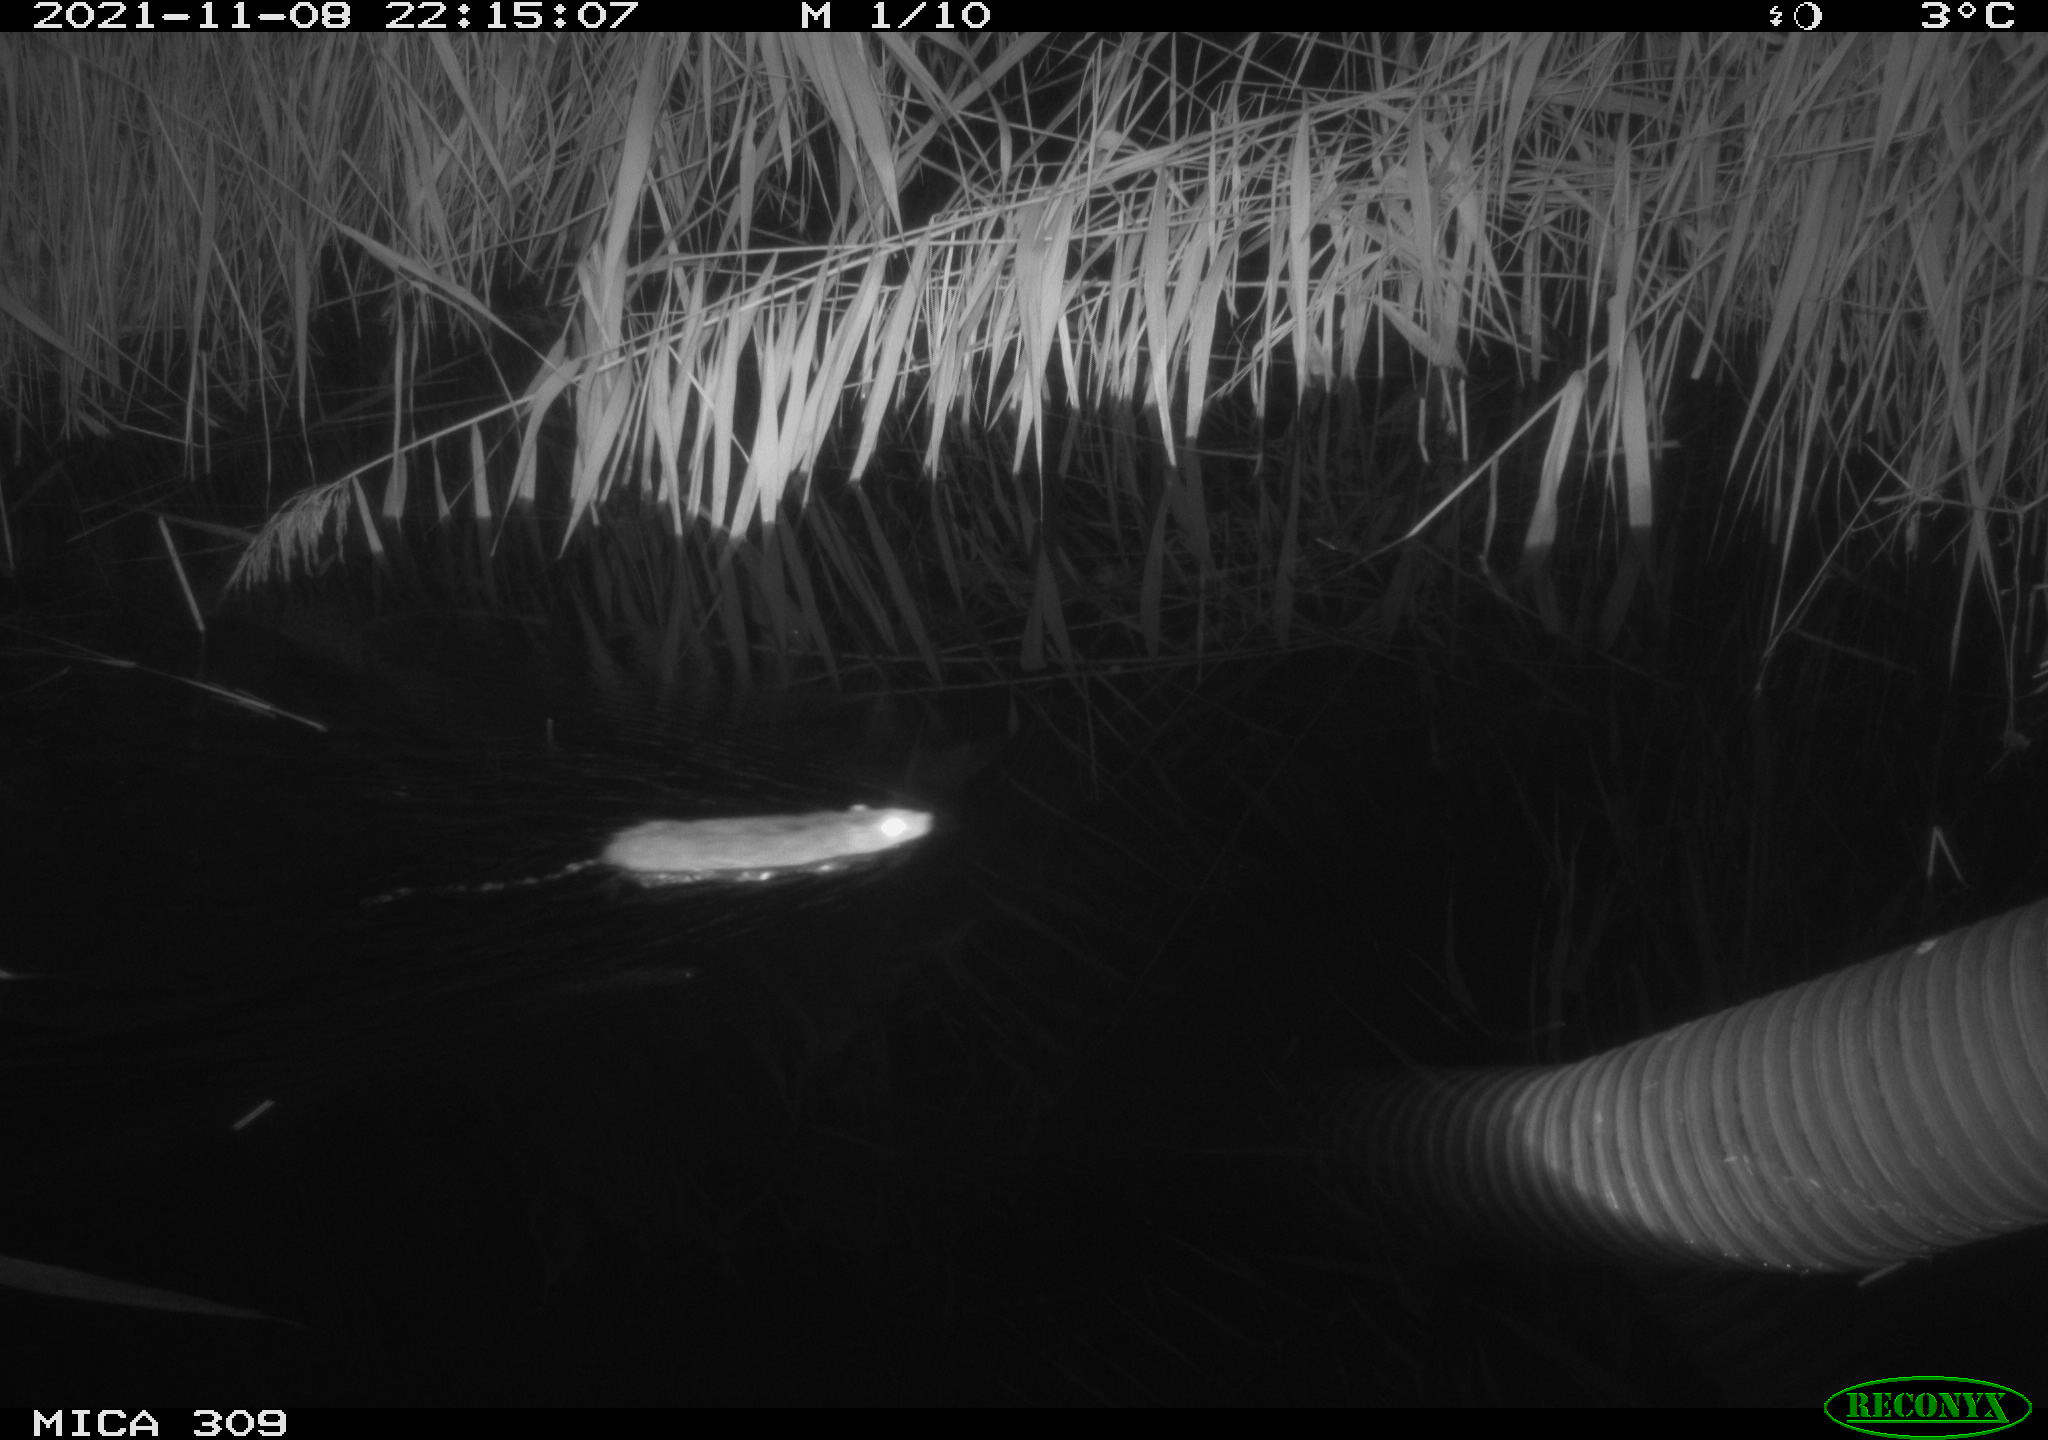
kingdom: Animalia
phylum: Chordata
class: Mammalia
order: Rodentia
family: Muridae
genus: Rattus
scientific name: Rattus norvegicus
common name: Brown rat
